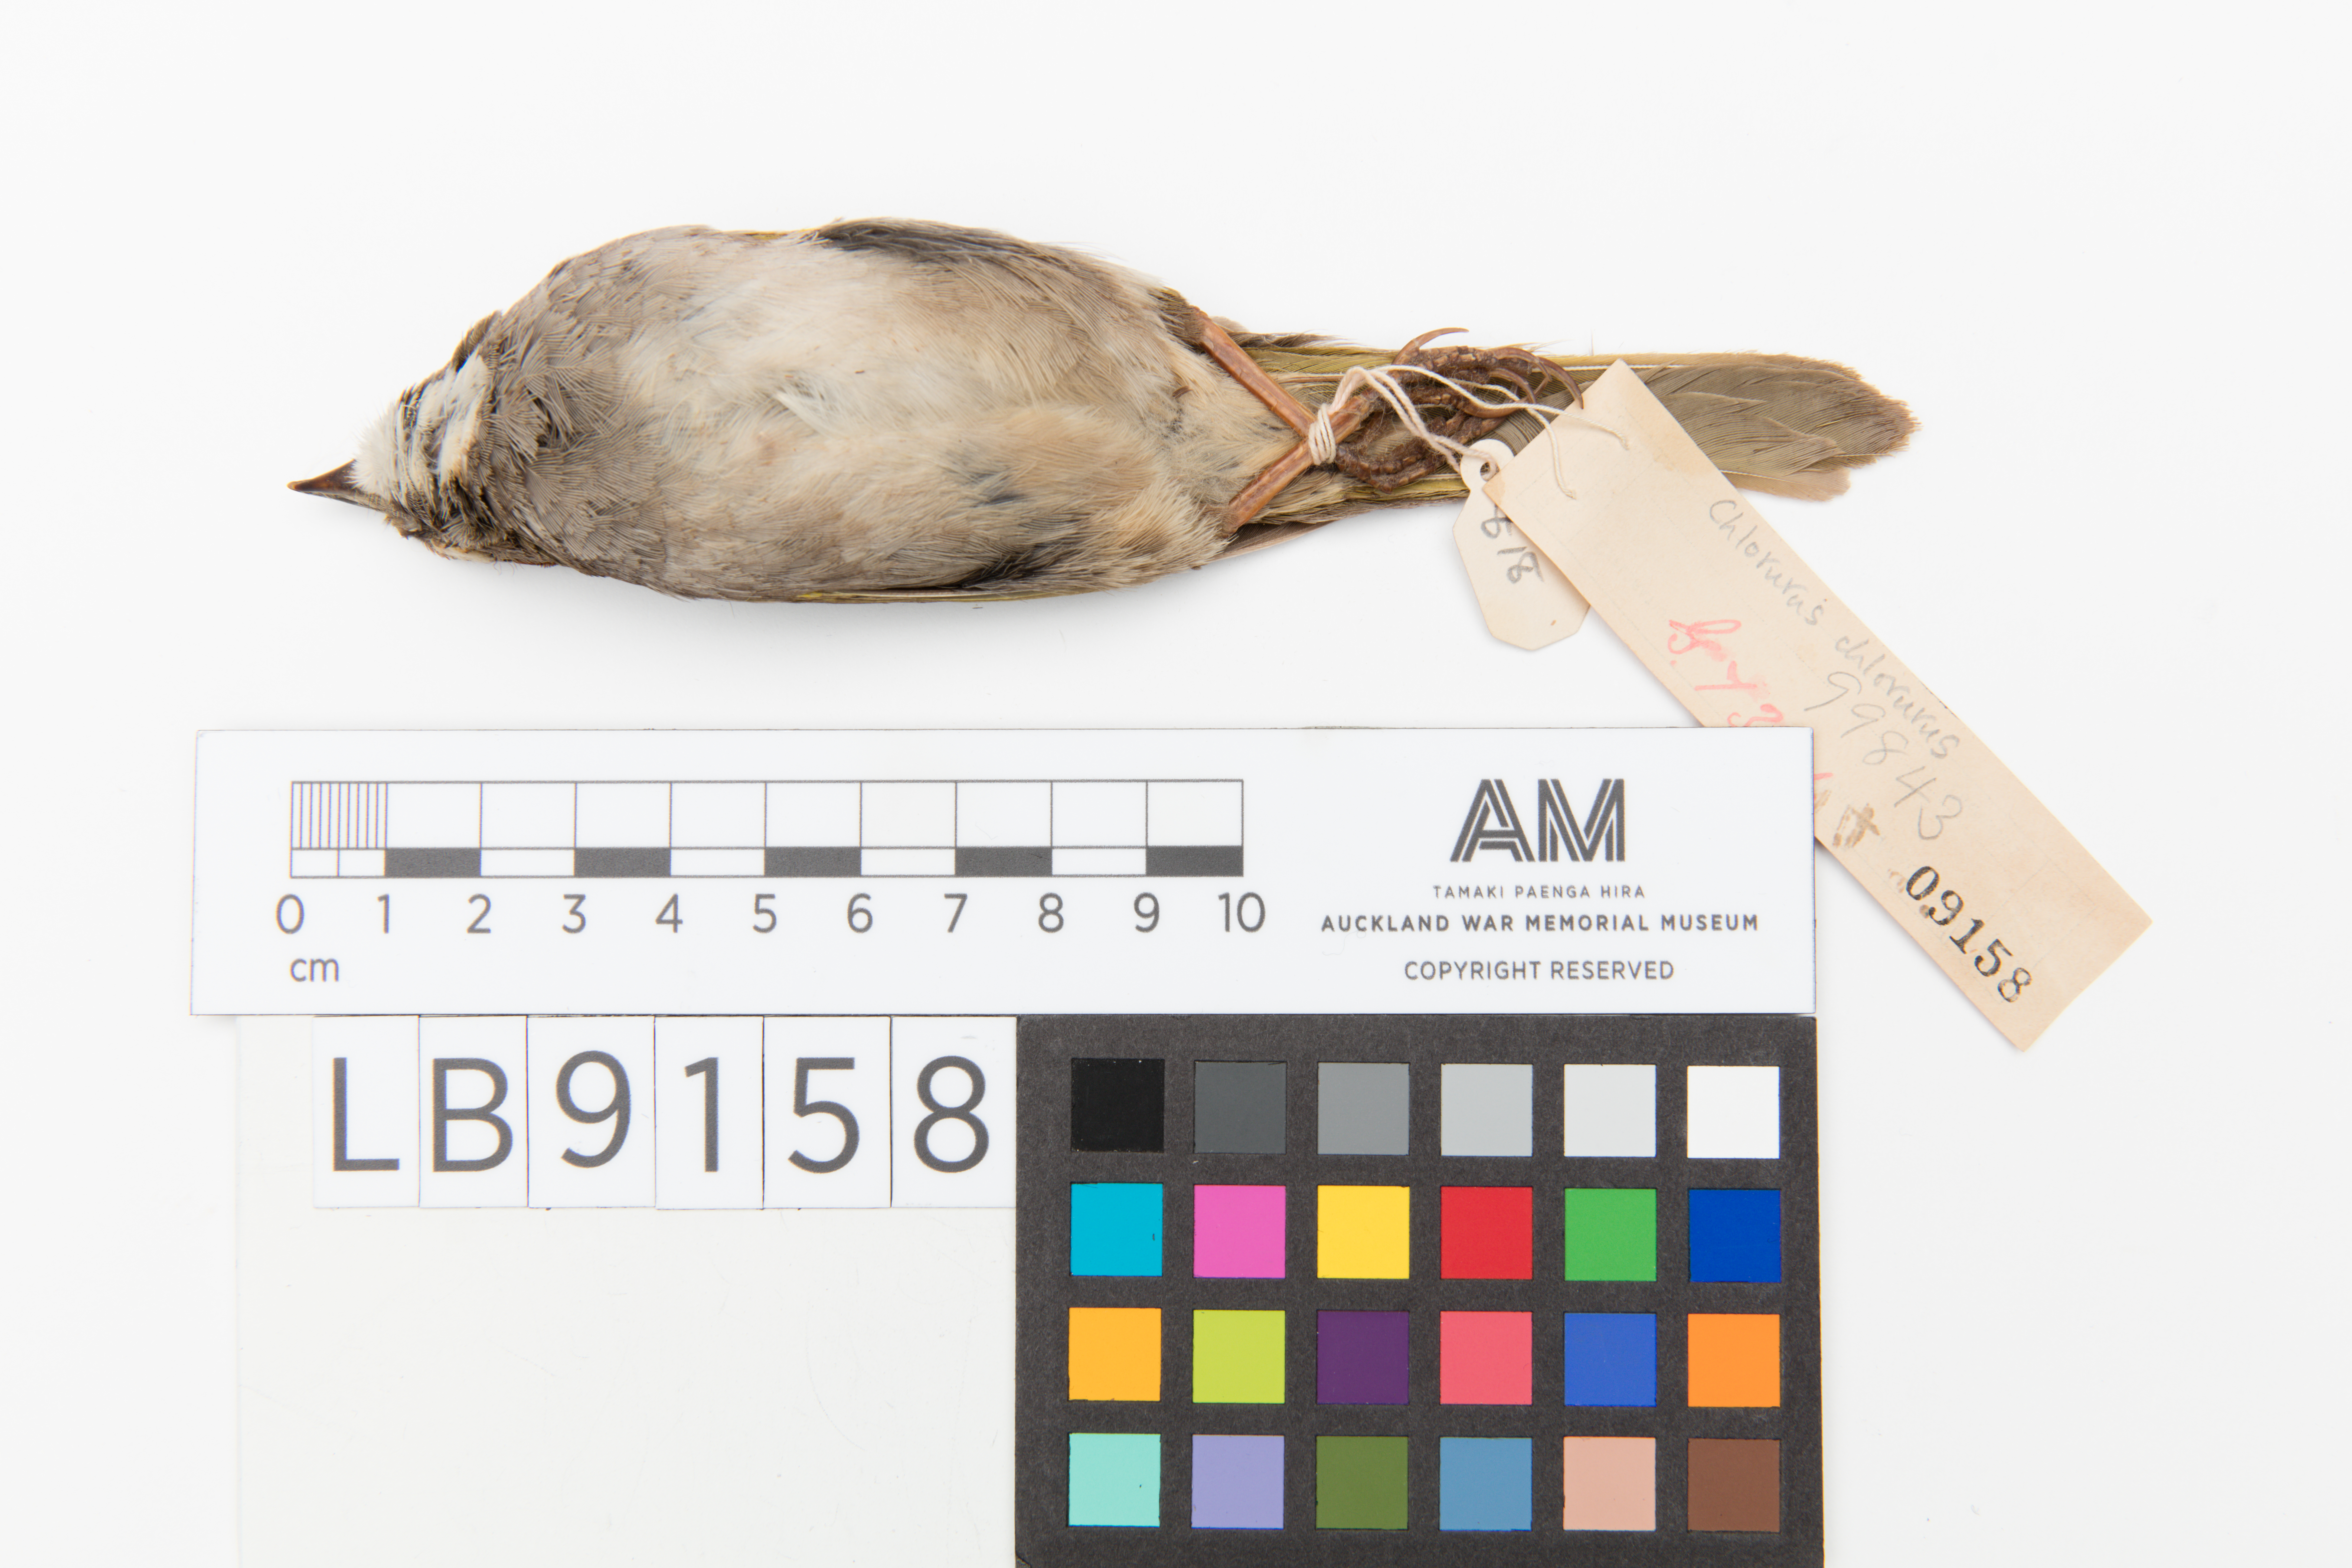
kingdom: Animalia
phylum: Chordata
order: Perciformes
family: Scaridae
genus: Chlorurus
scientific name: Chlorurus
